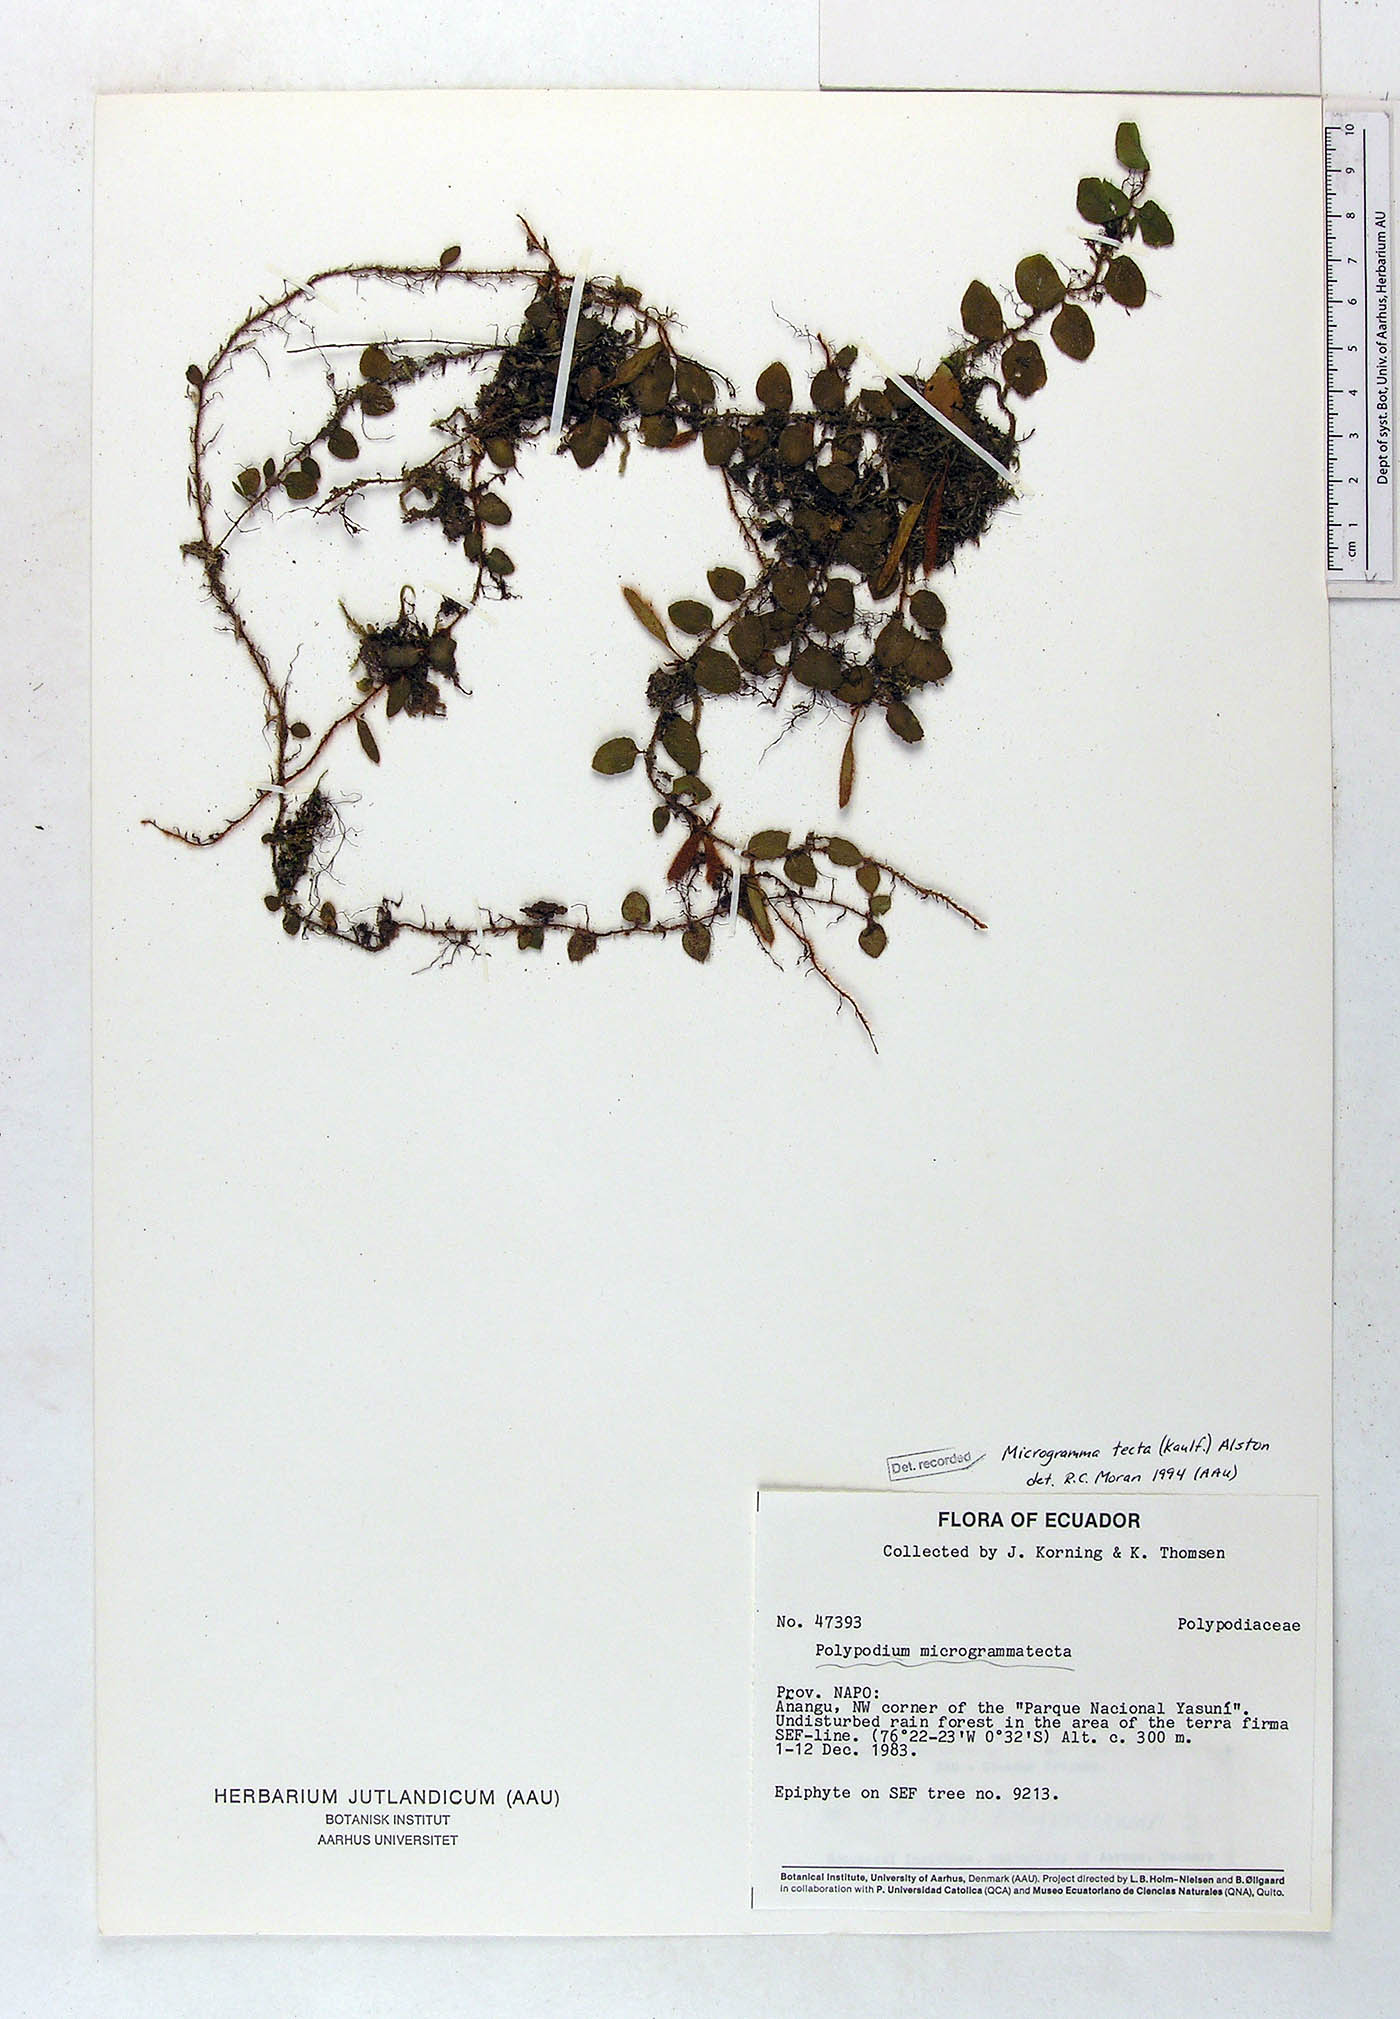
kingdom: Plantae
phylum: Tracheophyta
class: Polypodiopsida
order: Polypodiales
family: Polypodiaceae
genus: Microgramma
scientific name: Microgramma tecta
